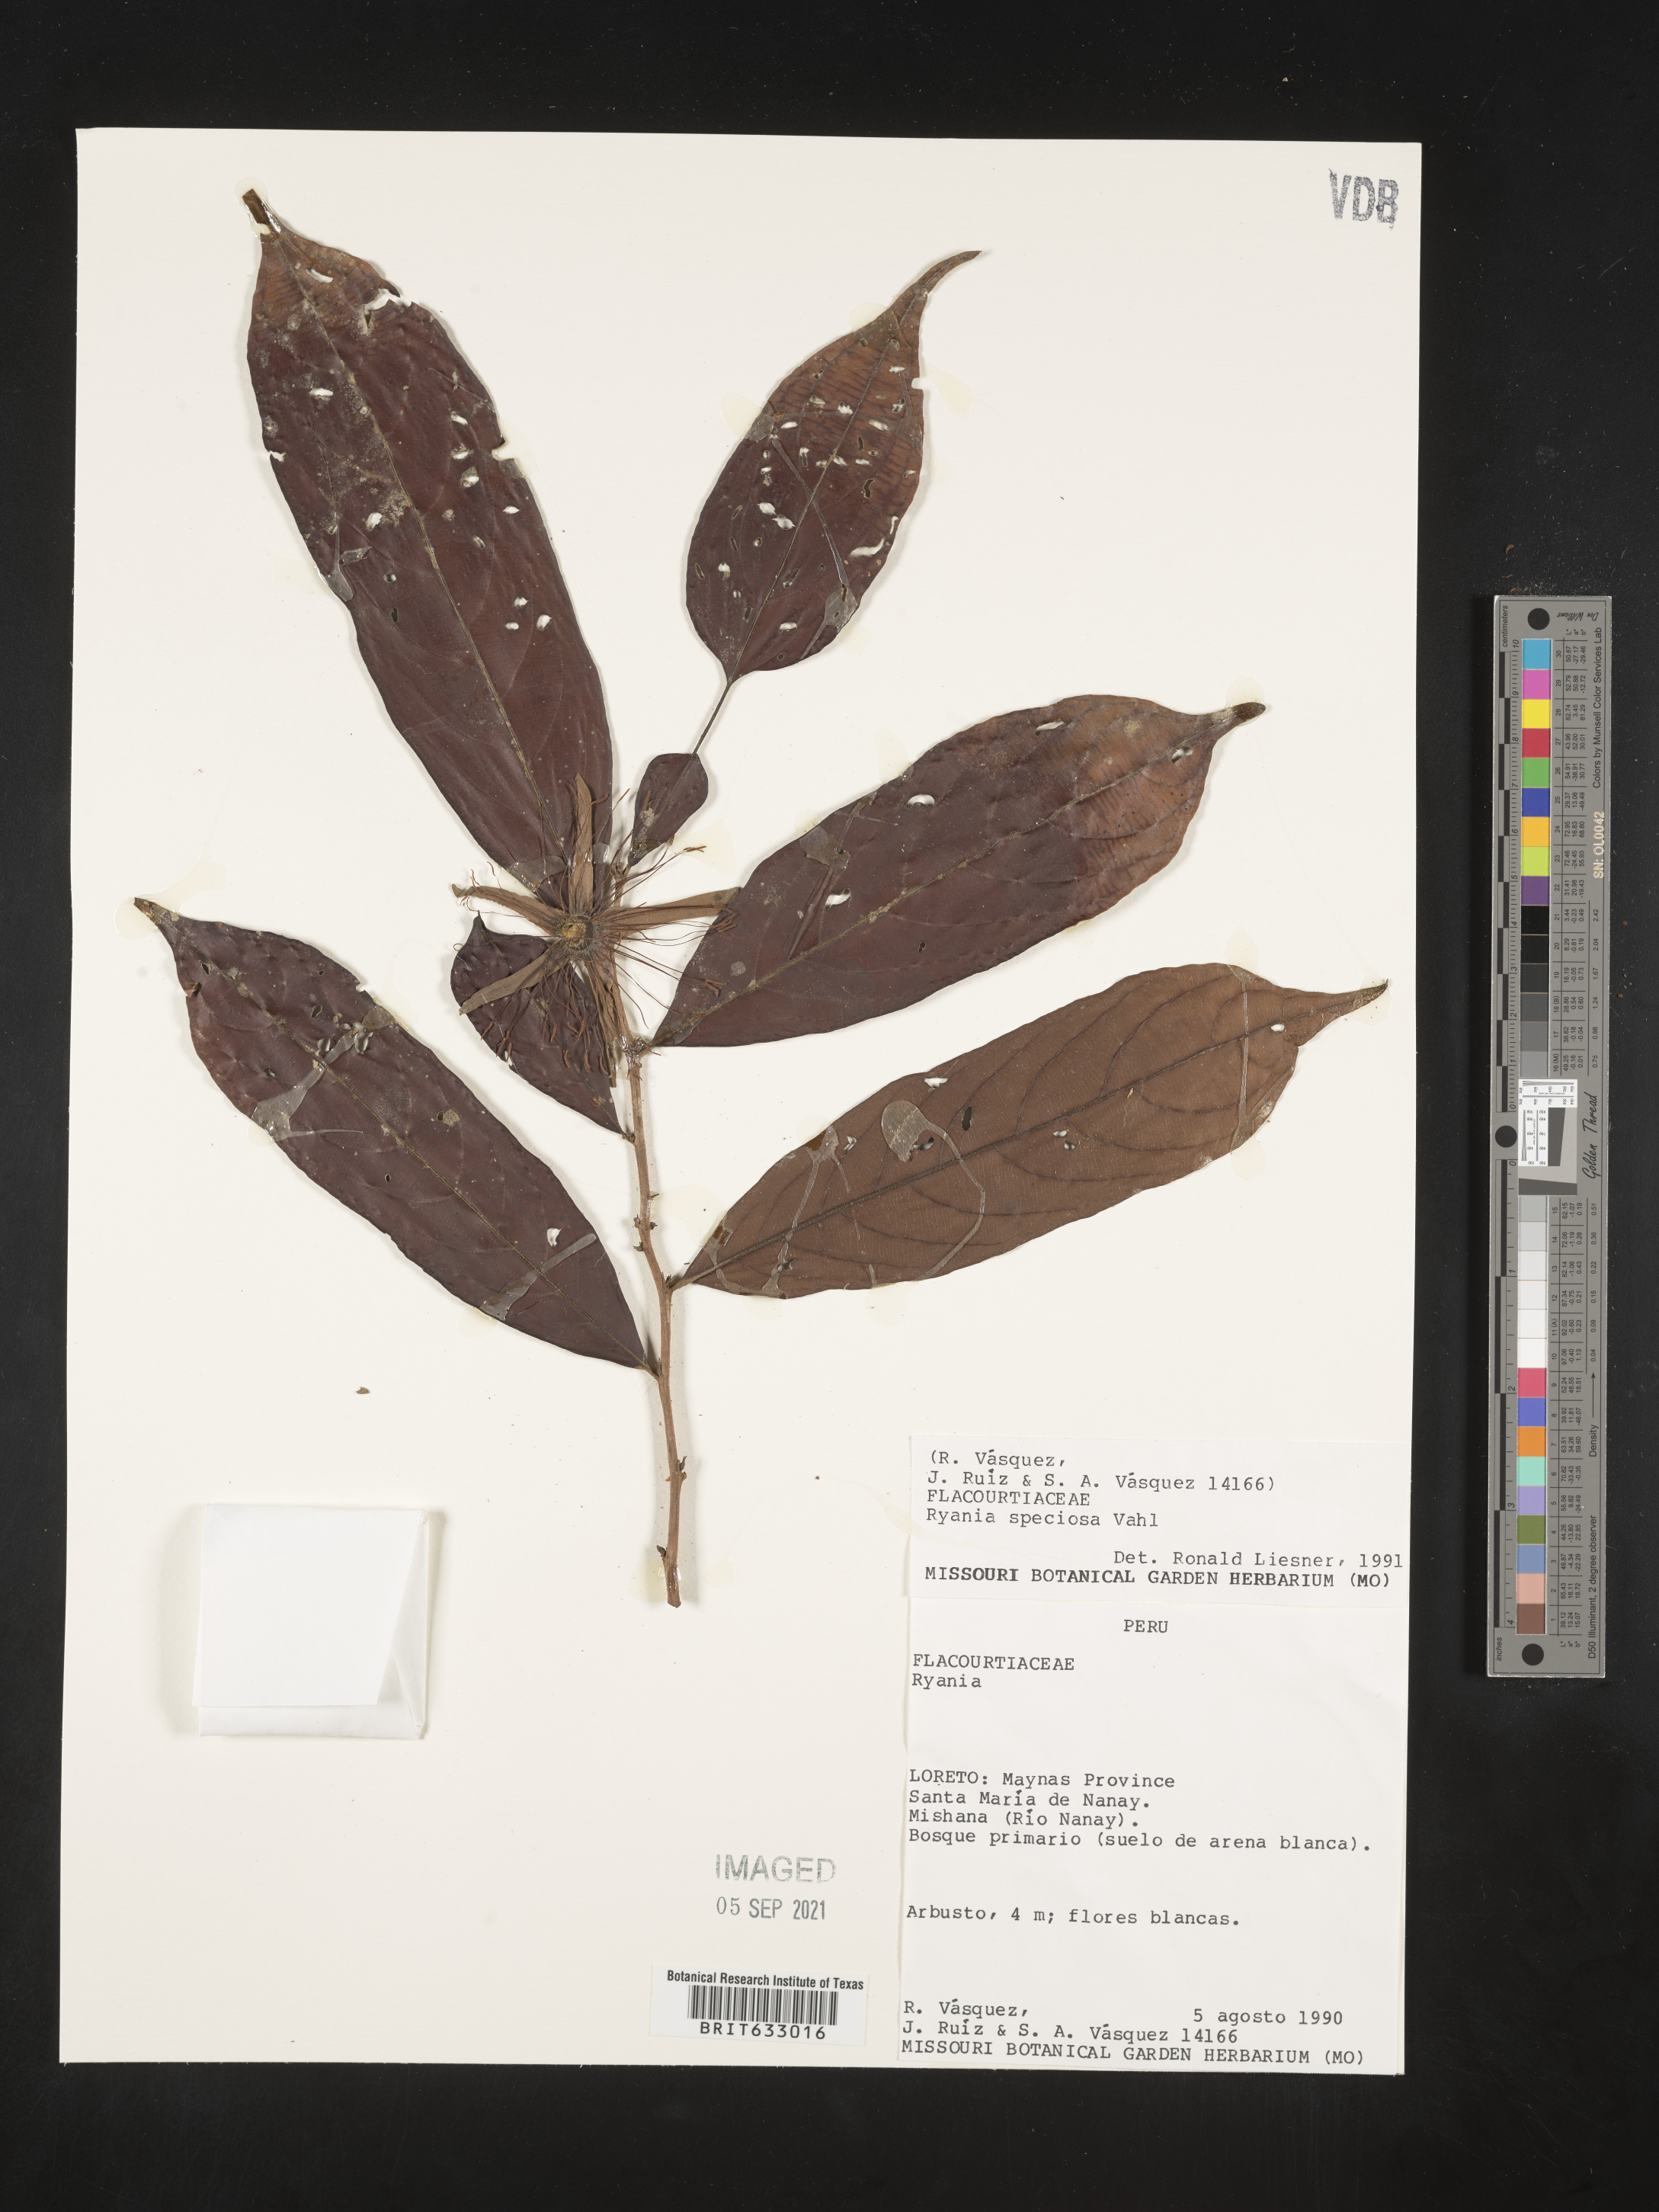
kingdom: Plantae
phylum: Tracheophyta
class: Magnoliopsida
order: Malpighiales
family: Salicaceae
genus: Ryania
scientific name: Ryania
